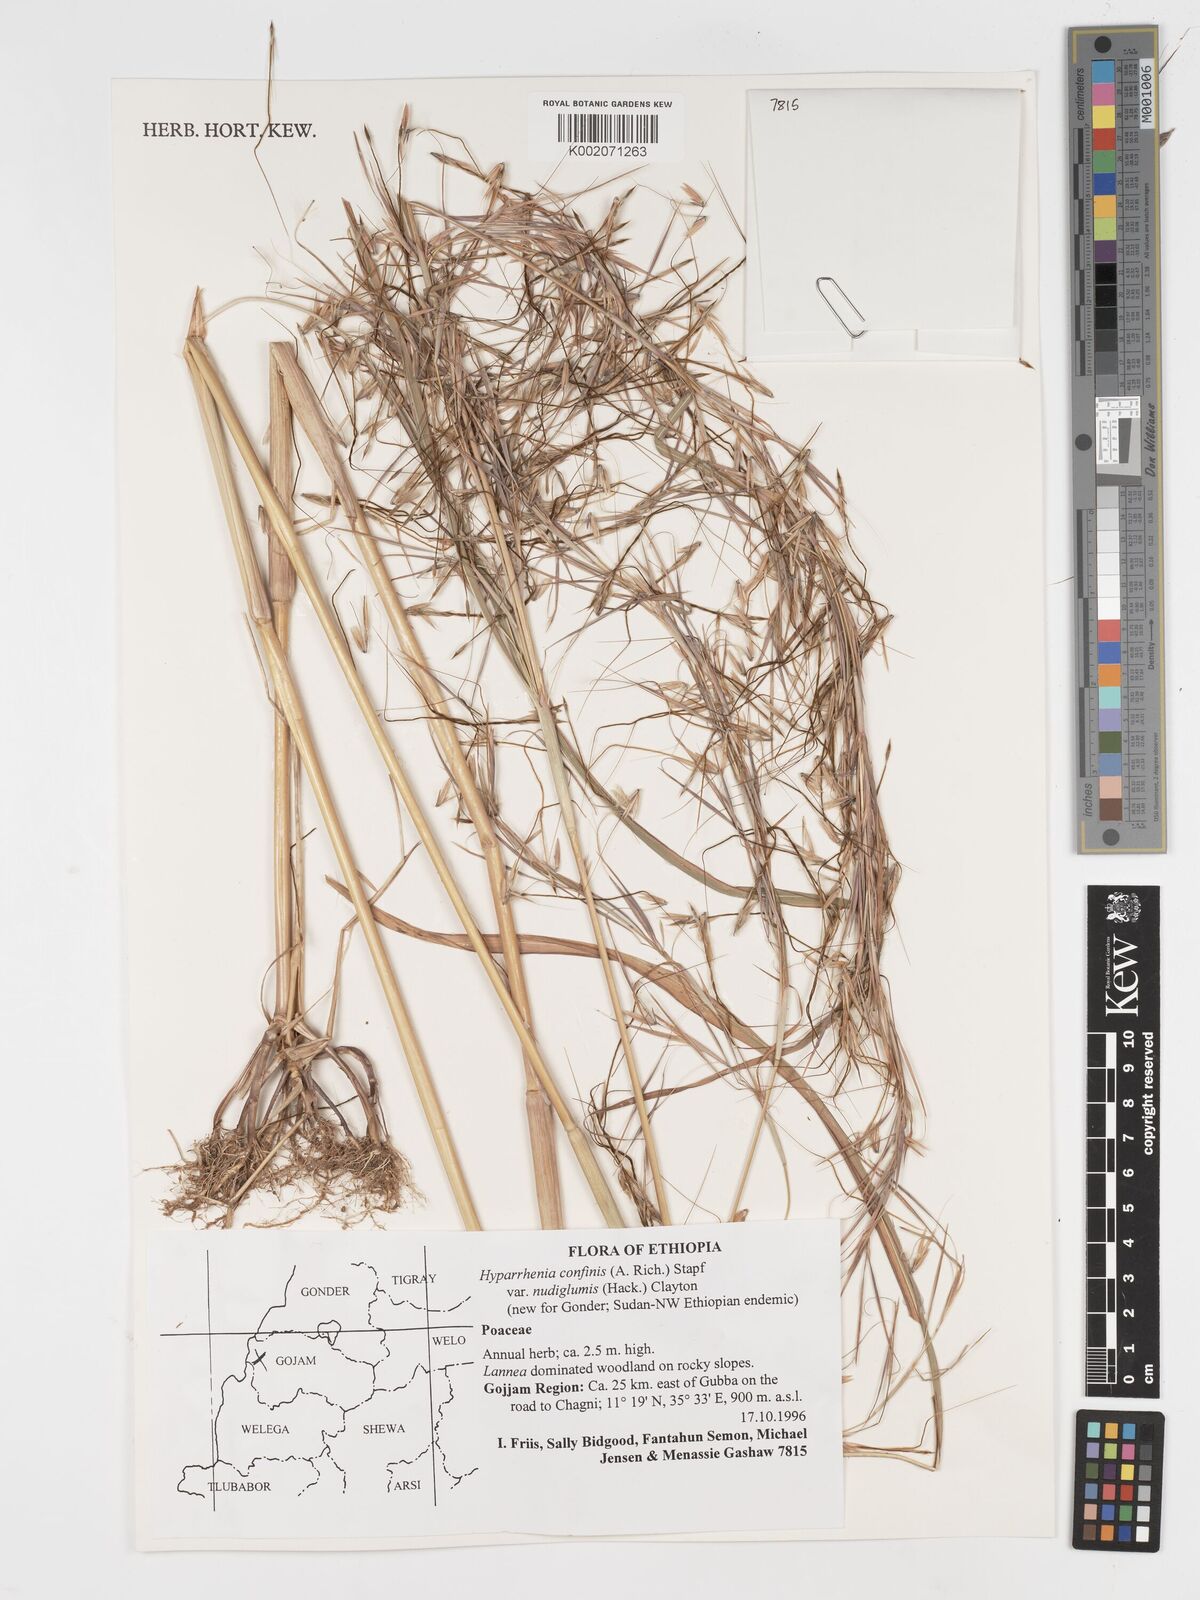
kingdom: Plantae
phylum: Tracheophyta
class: Liliopsida
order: Poales
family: Poaceae
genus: Hyparrhenia
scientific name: Hyparrhenia confinis
